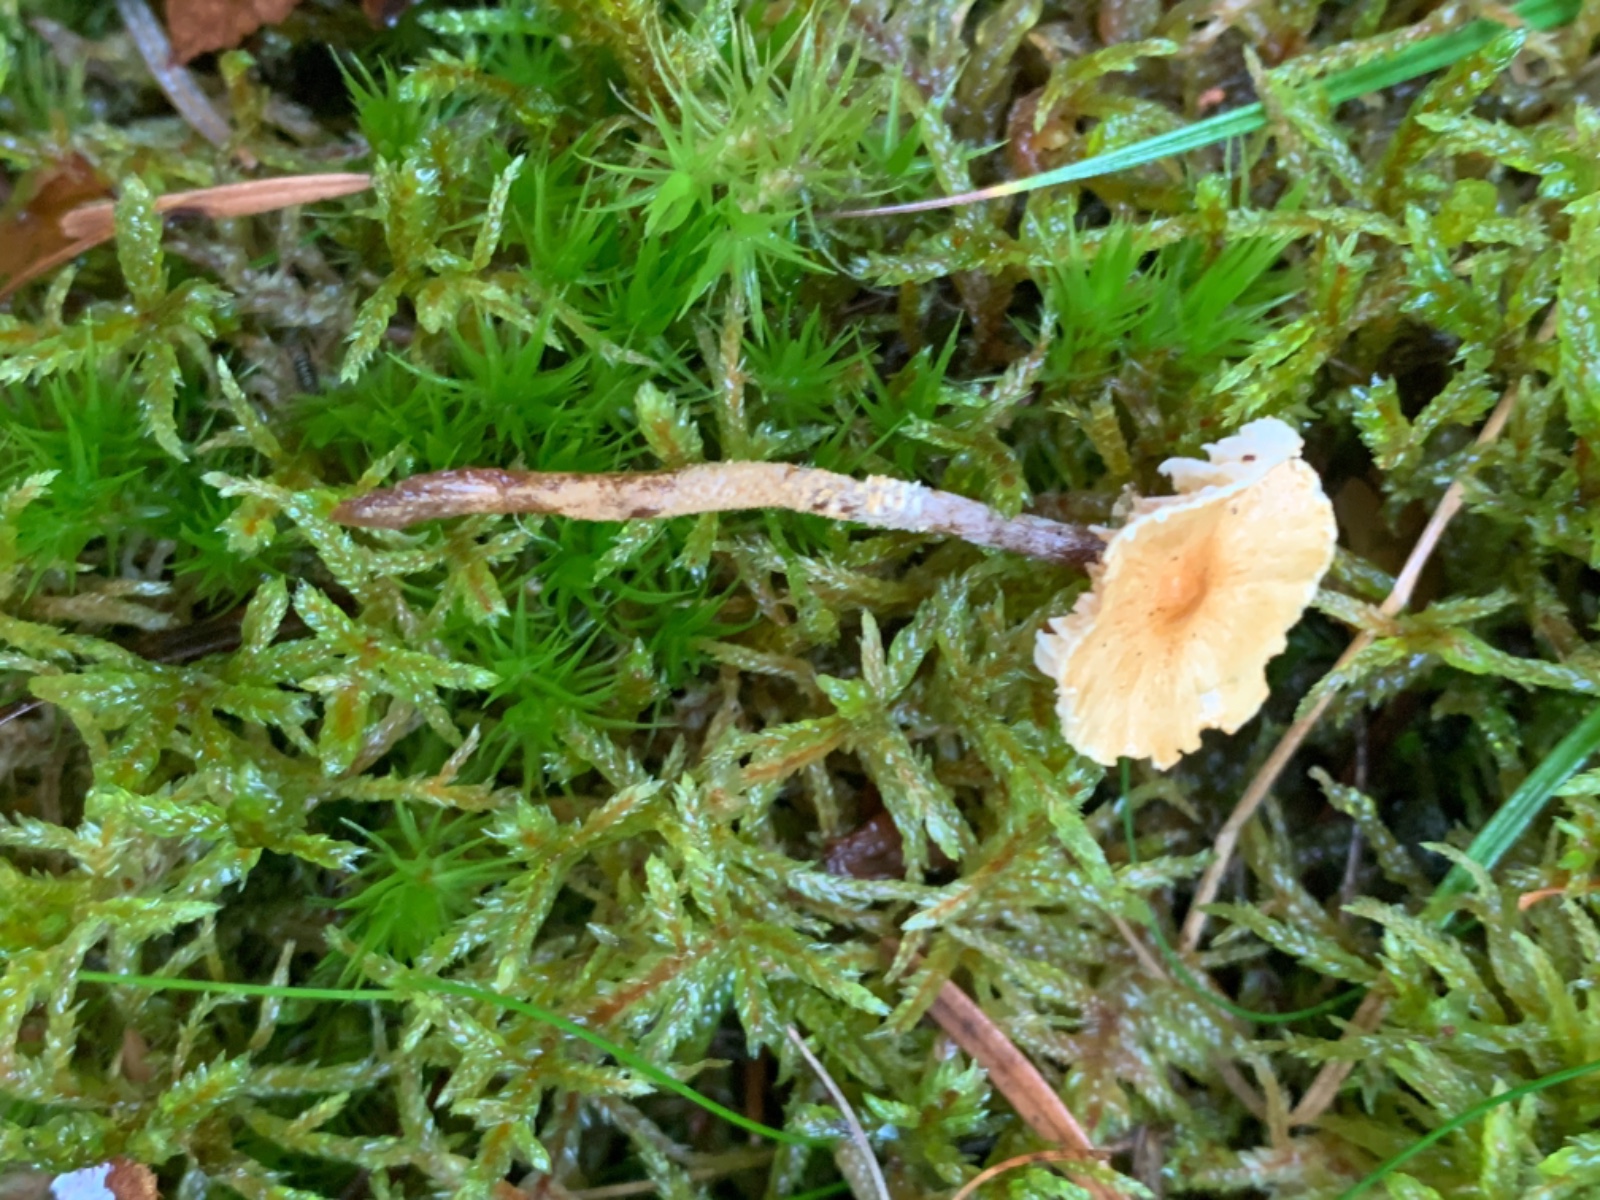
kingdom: Fungi
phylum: Basidiomycota
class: Agaricomycetes
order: Agaricales
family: Tricholomataceae
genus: Cystoderma
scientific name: Cystoderma amianthinum
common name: okkergul grynhat
